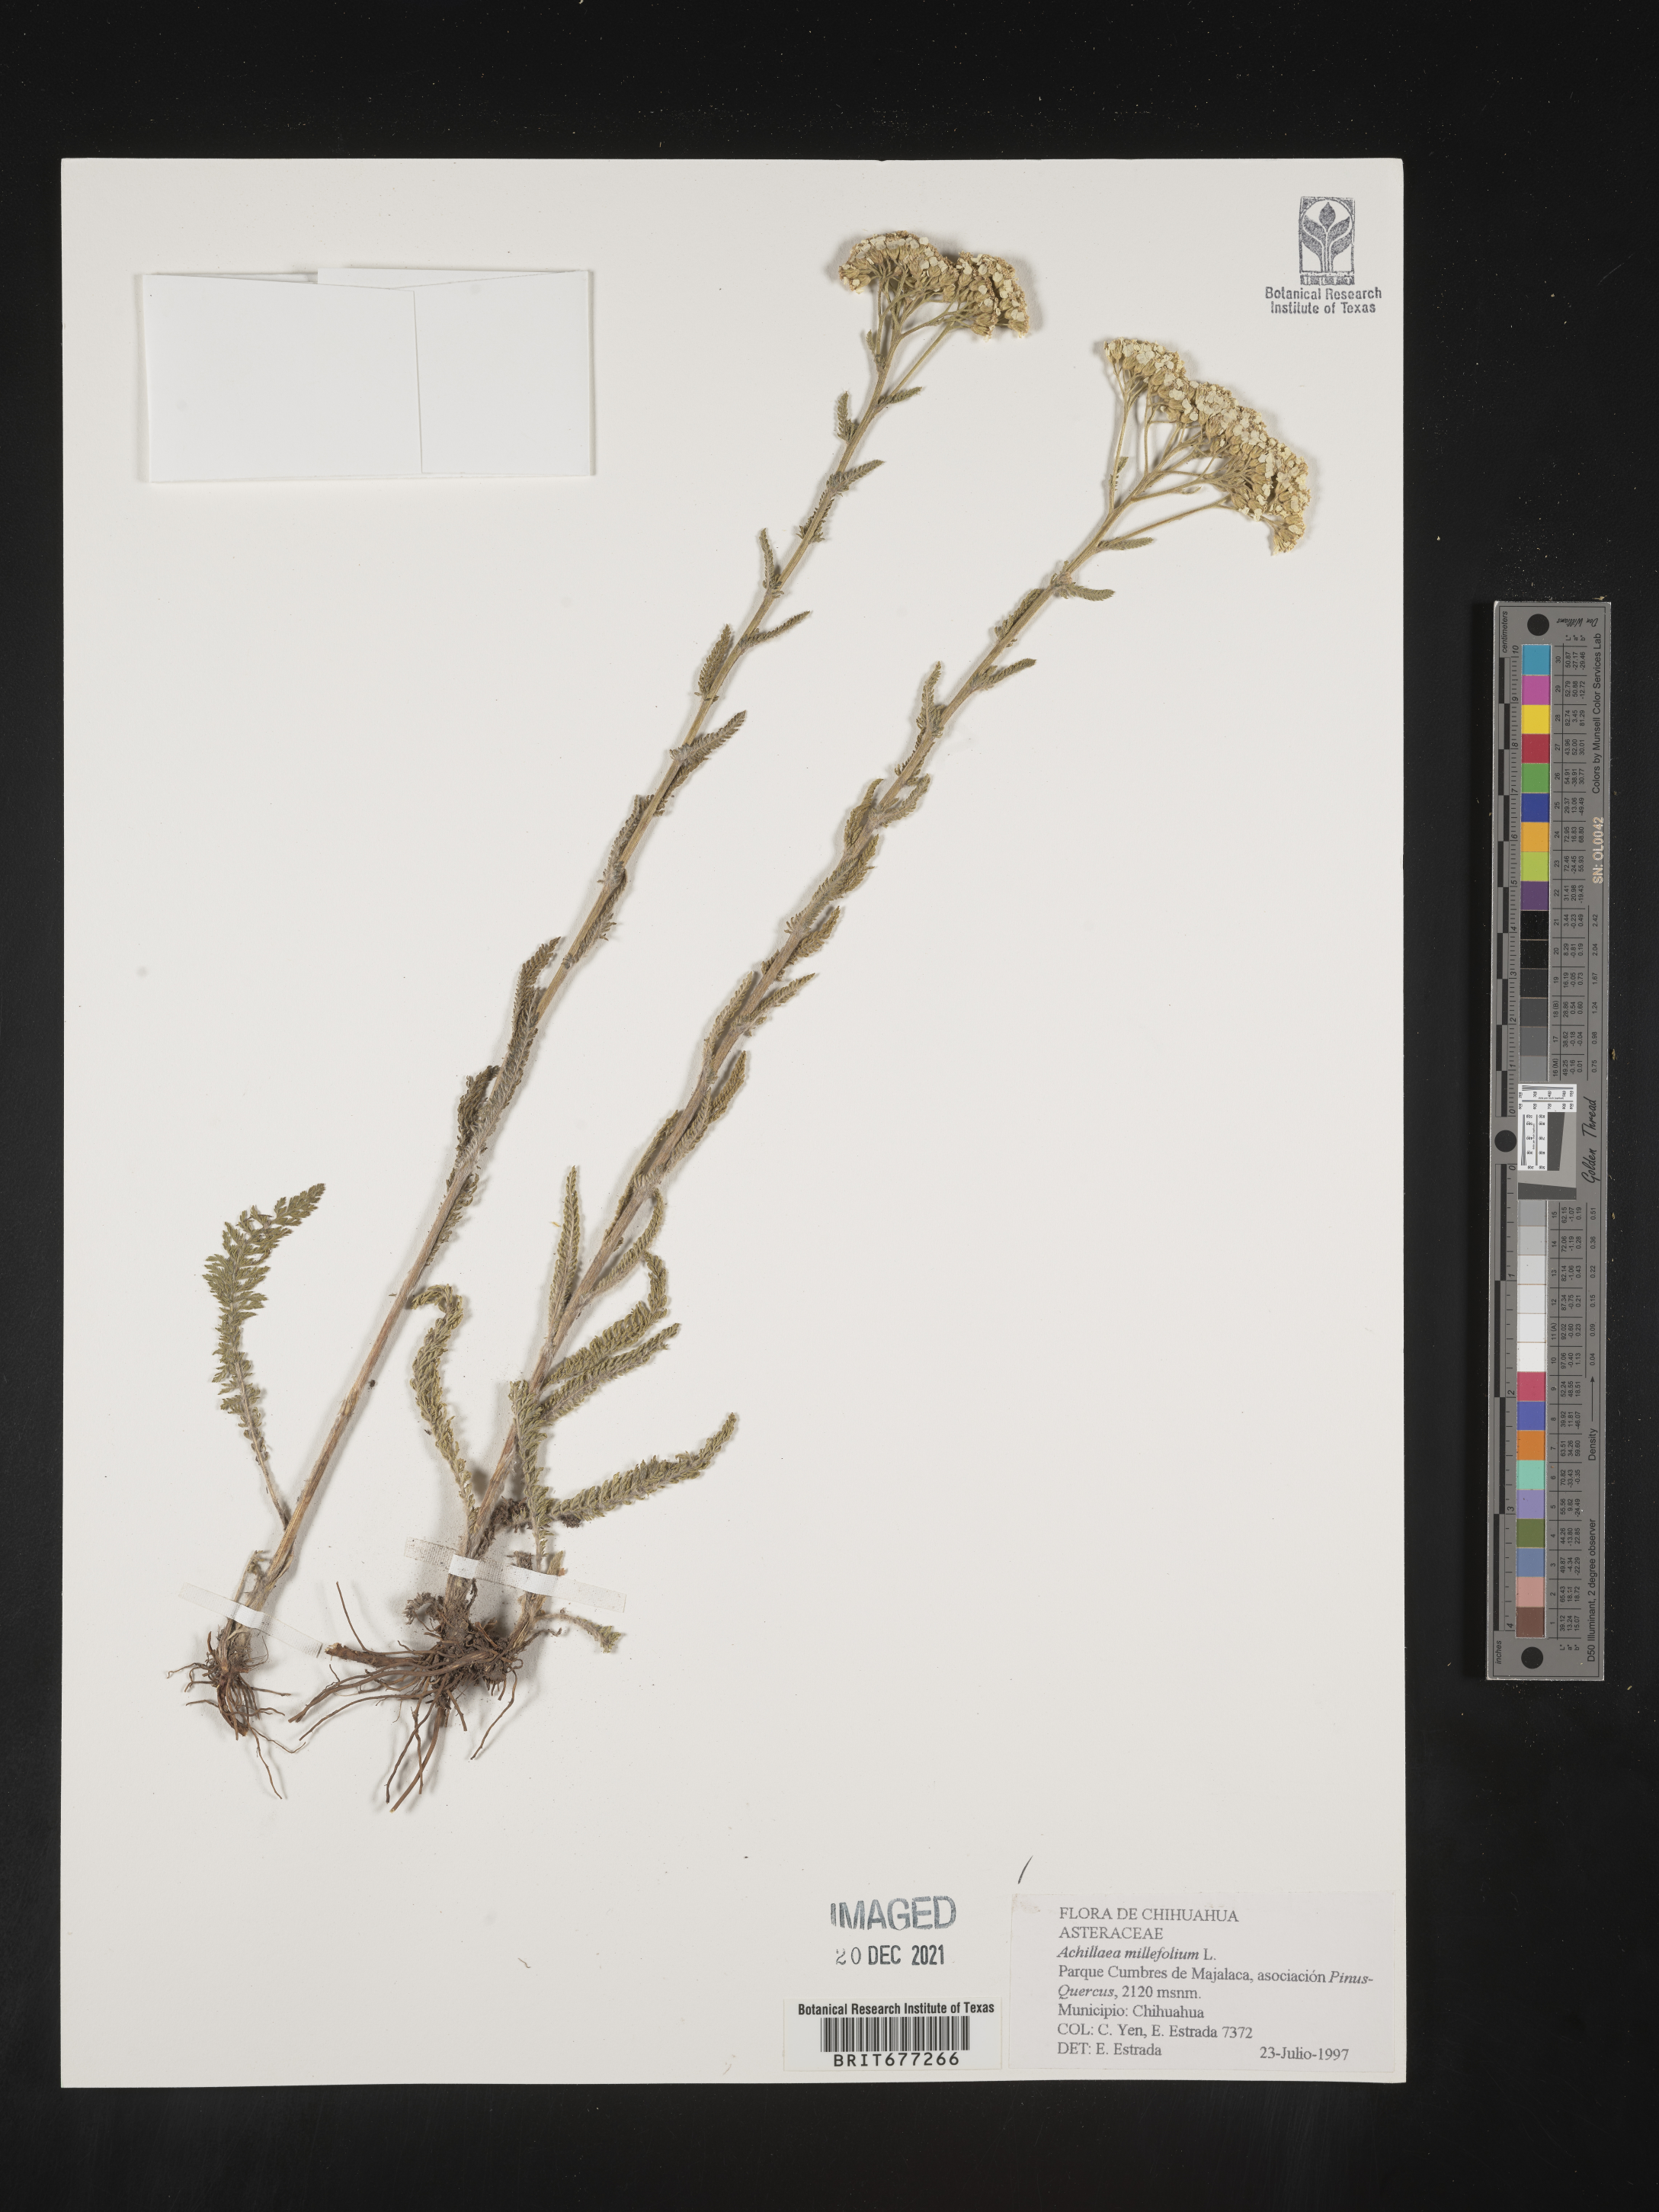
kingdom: Plantae
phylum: Tracheophyta
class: Magnoliopsida
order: Asterales
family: Asteraceae
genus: Achillea
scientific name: Achillea
